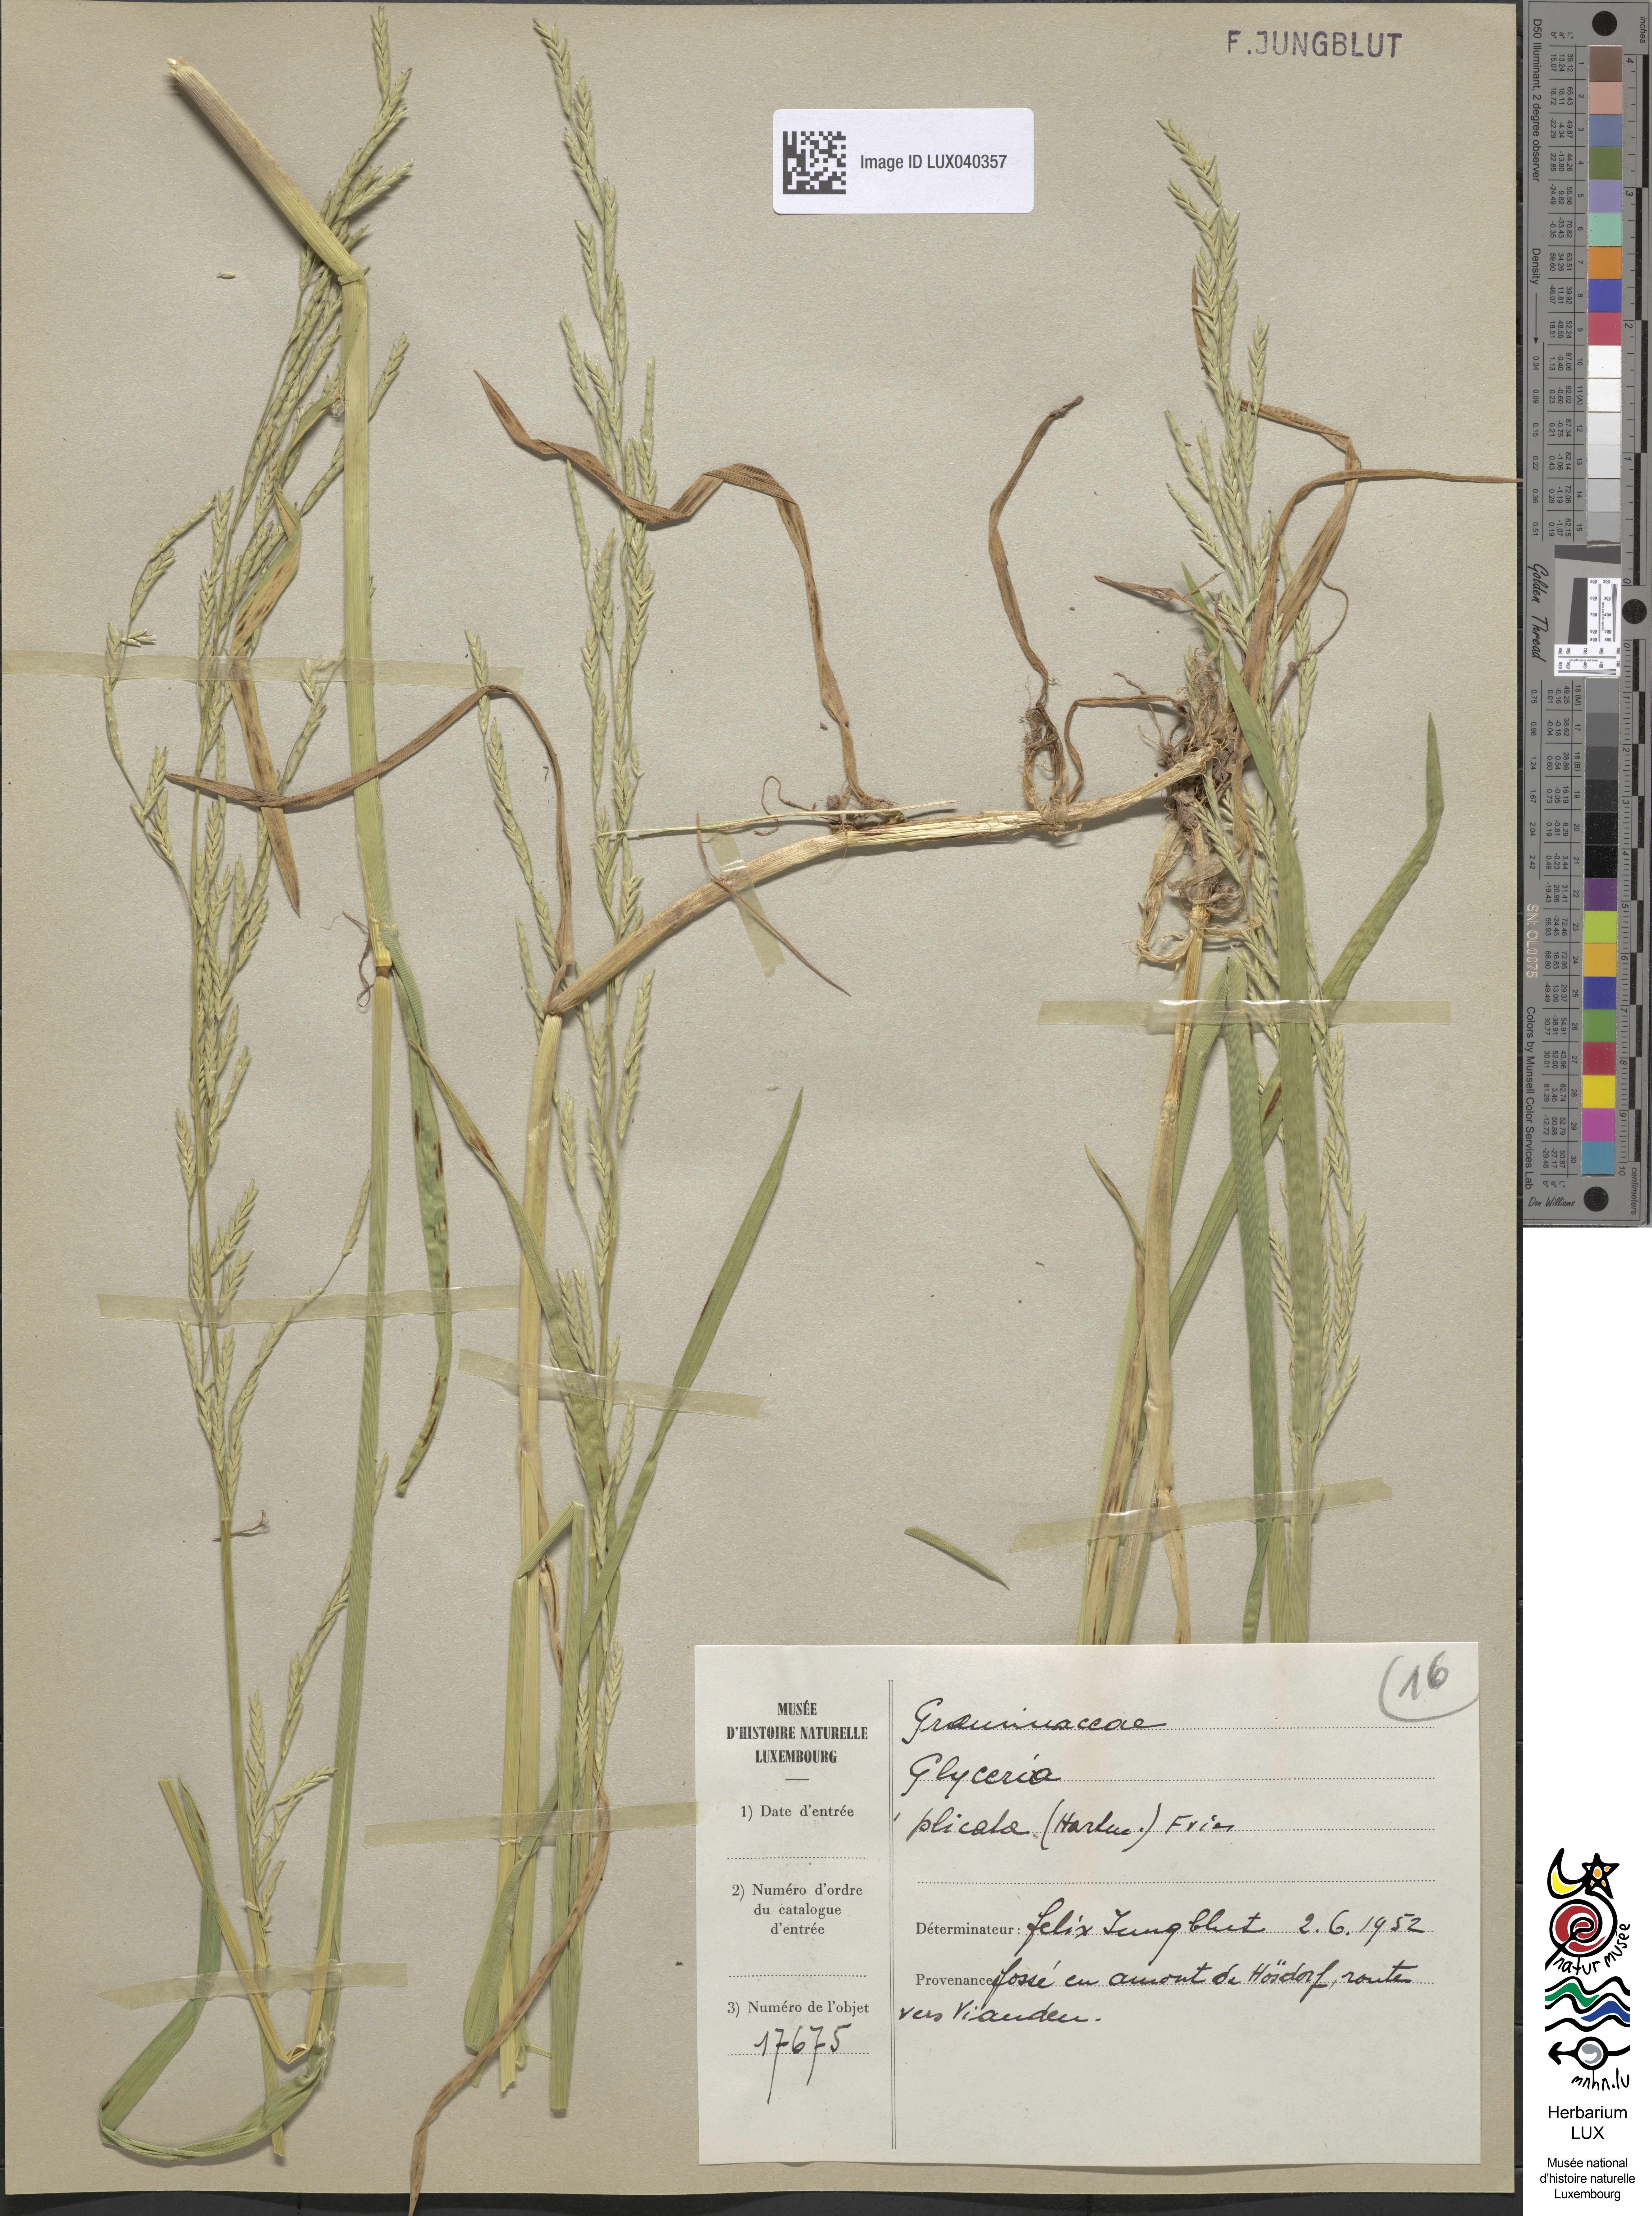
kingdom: Plantae
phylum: Tracheophyta
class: Liliopsida
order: Poales
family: Poaceae
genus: Glyceria
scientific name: Glyceria notata
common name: Plicate sweet-grass
